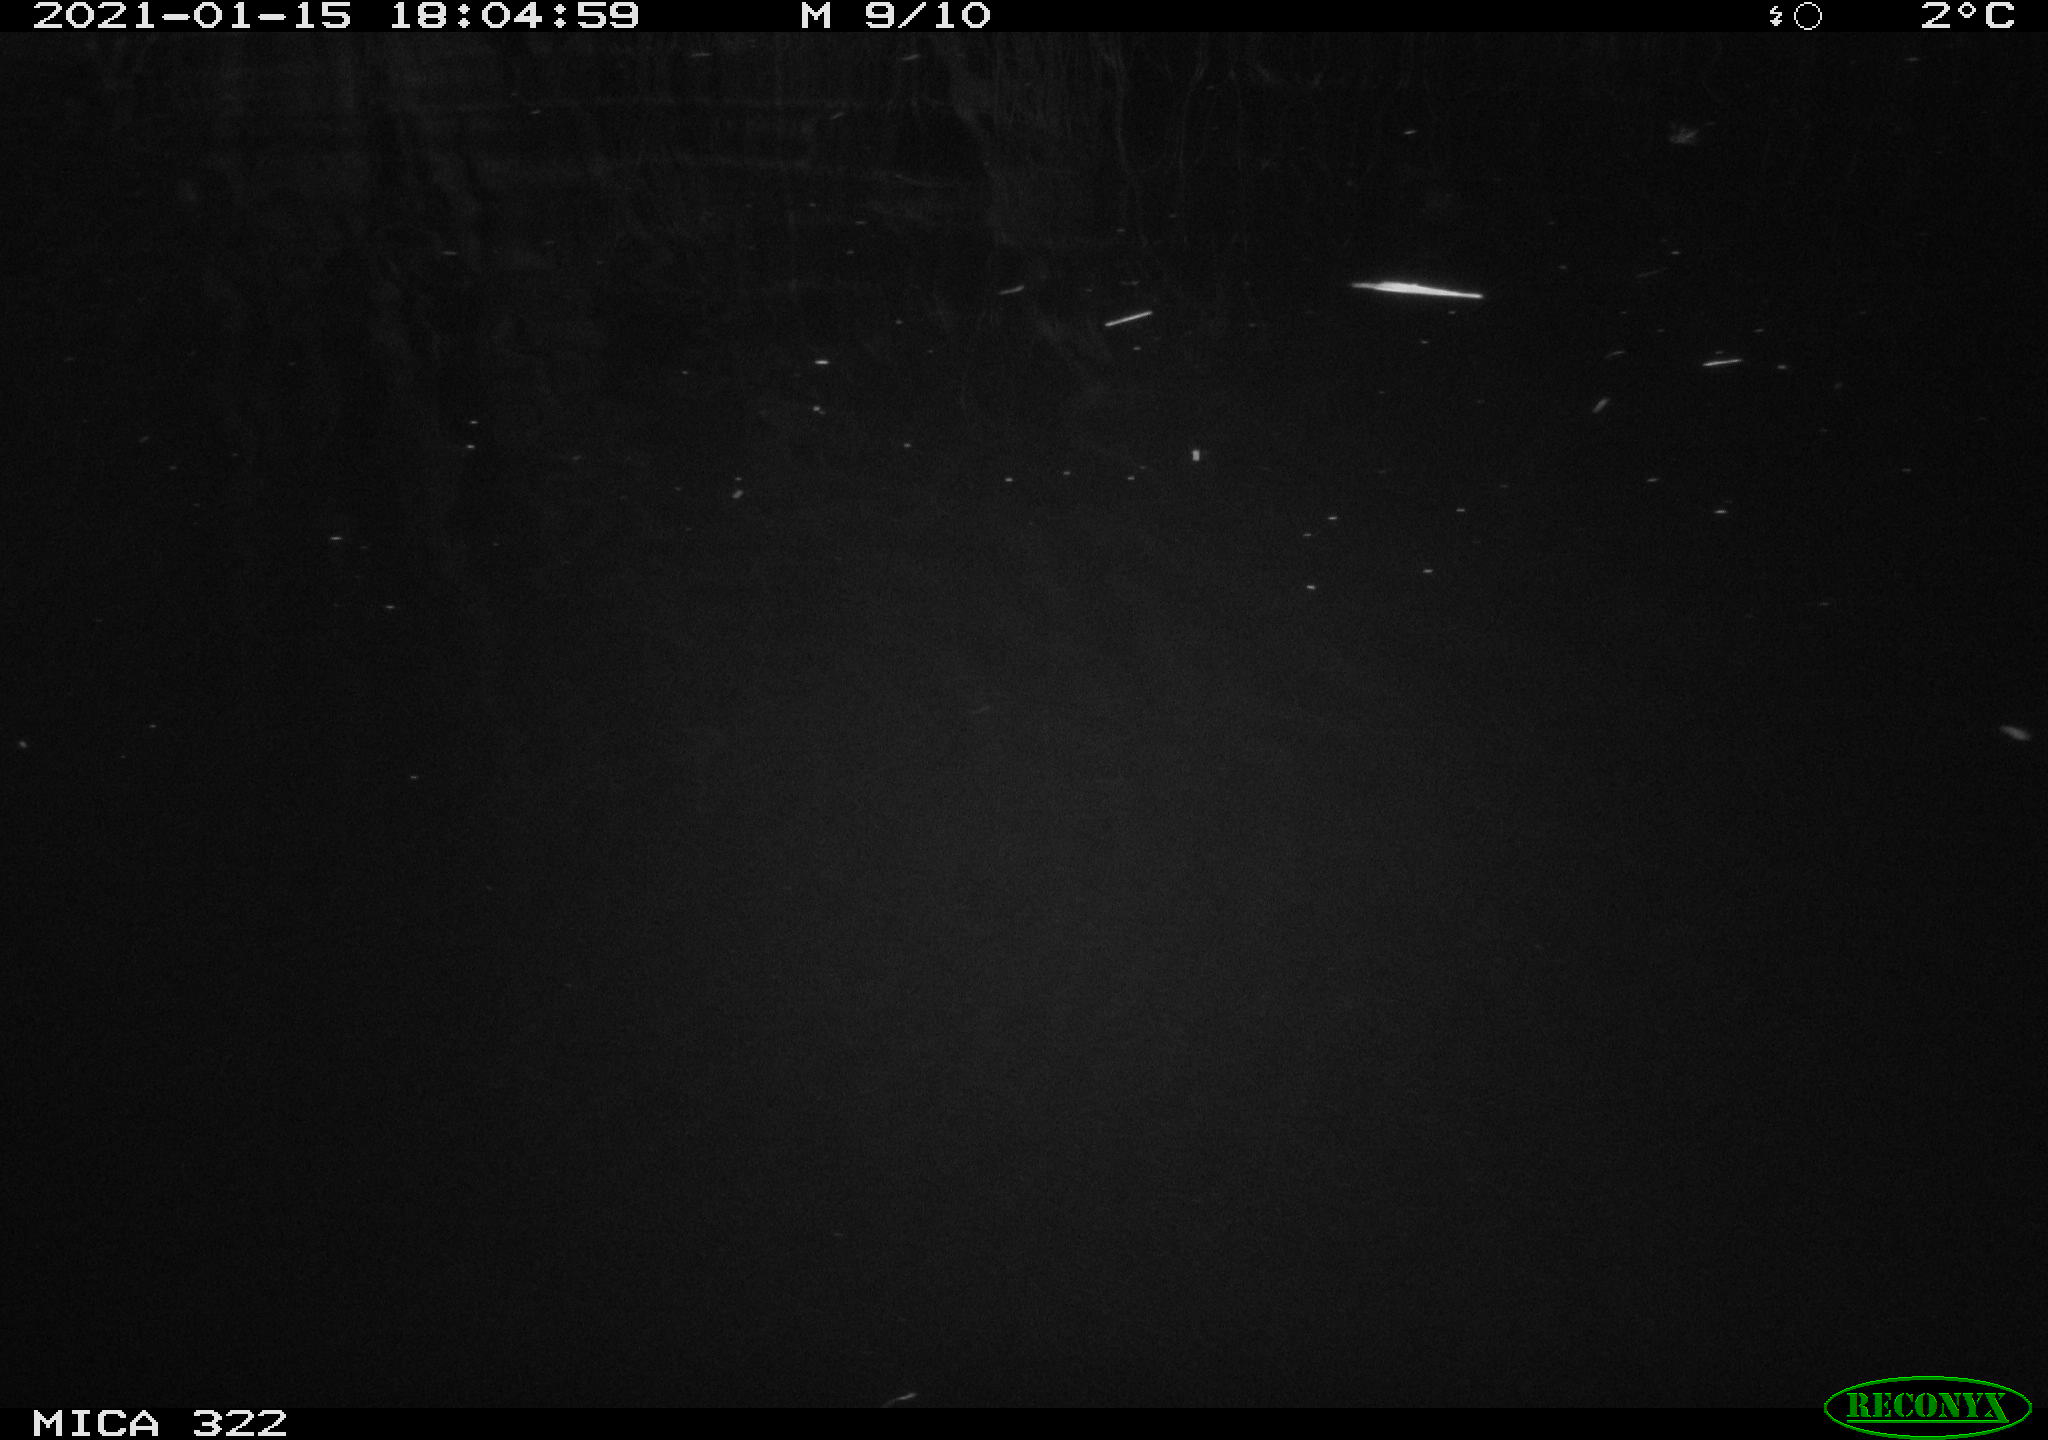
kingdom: Animalia
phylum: Chordata
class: Mammalia
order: Rodentia
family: Muridae
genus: Rattus
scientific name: Rattus norvegicus
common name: Brown rat
